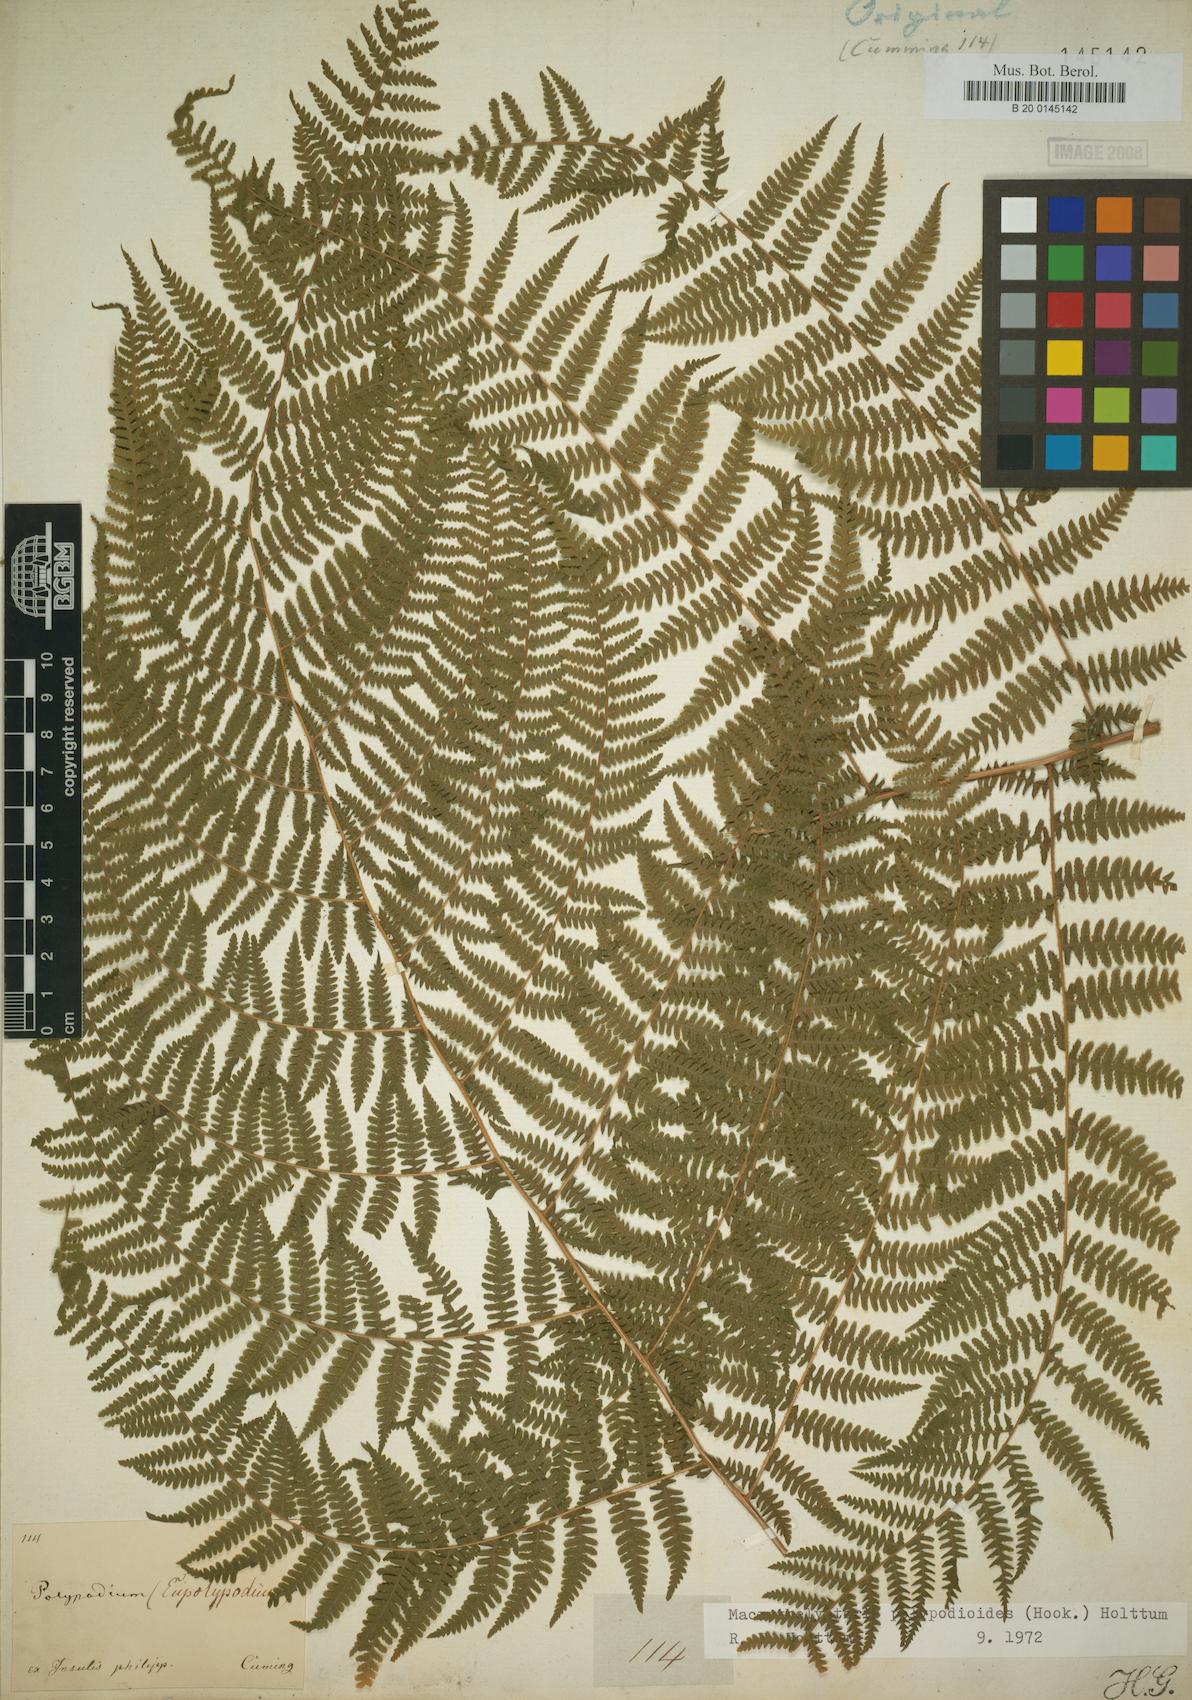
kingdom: Plantae
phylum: Tracheophyta
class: Polypodiopsida
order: Polypodiales
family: Thelypteridaceae
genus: Macrothelypteris
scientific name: Macrothelypteris polypodioides
